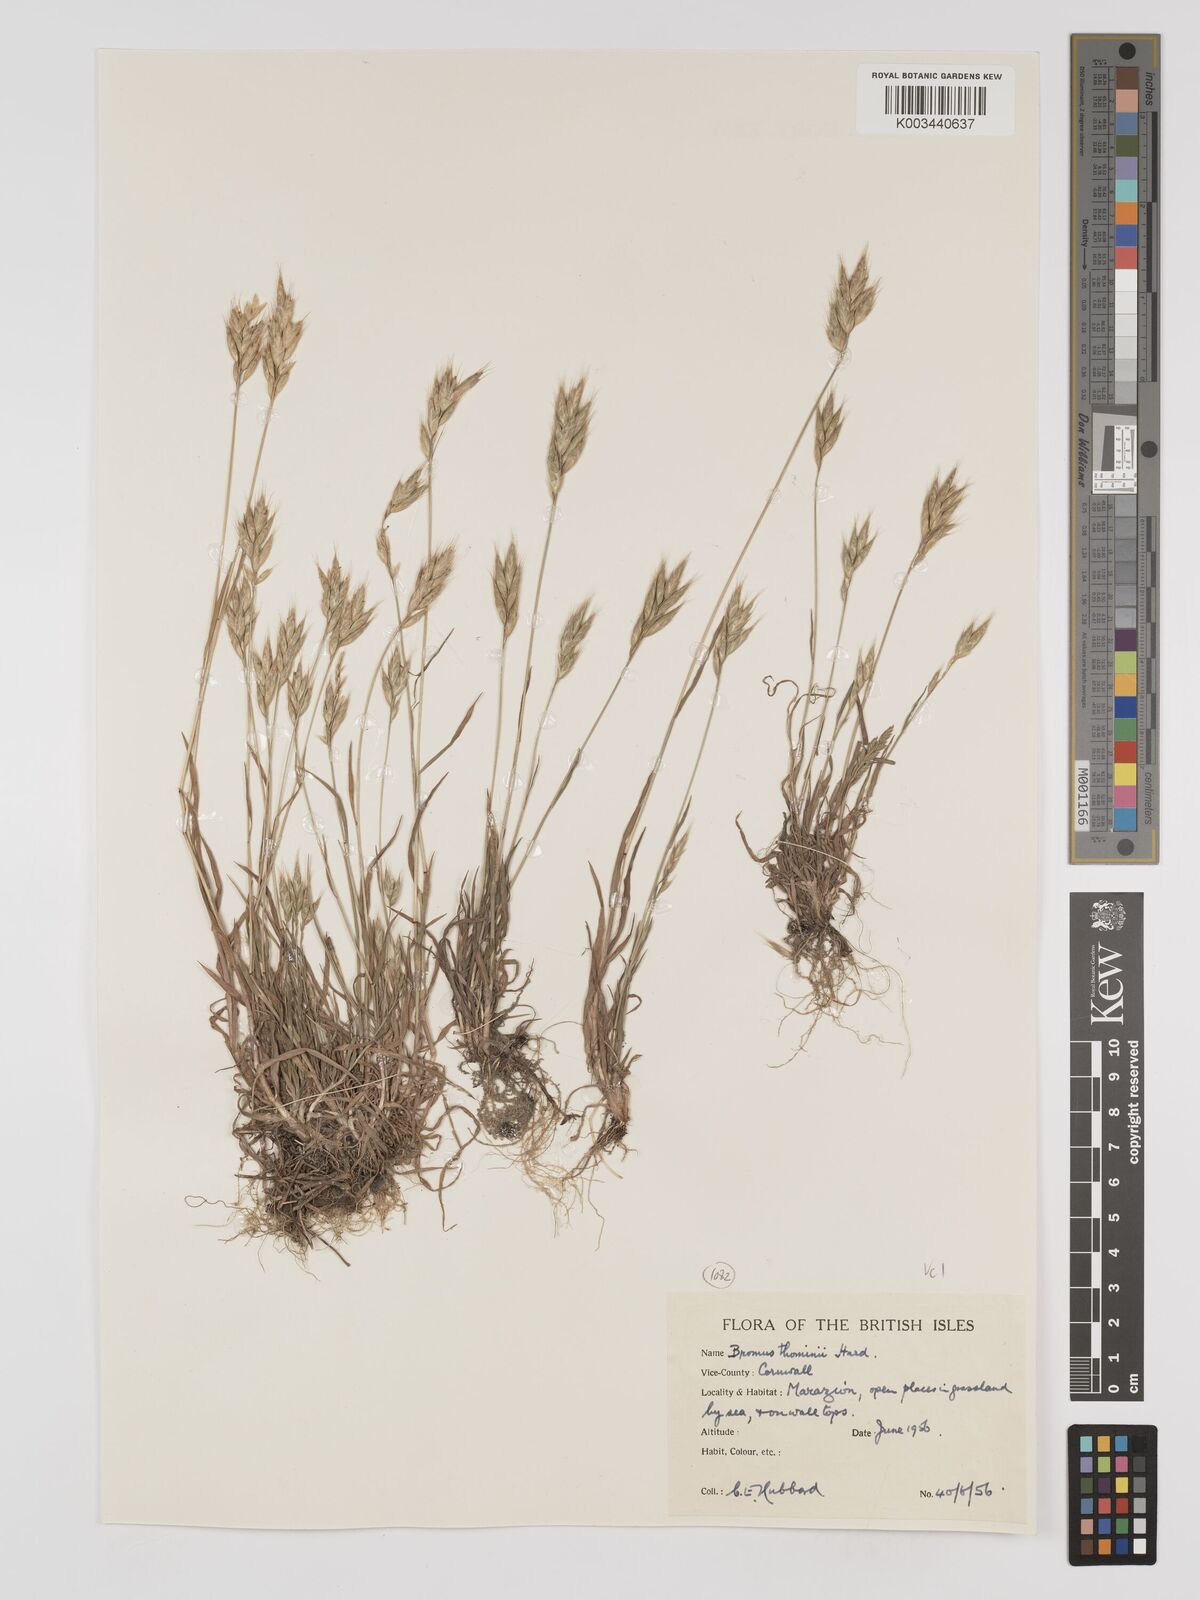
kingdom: Plantae
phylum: Tracheophyta
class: Liliopsida
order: Poales
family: Poaceae
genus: Bromus
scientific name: Bromus hordeaceus
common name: Soft brome
